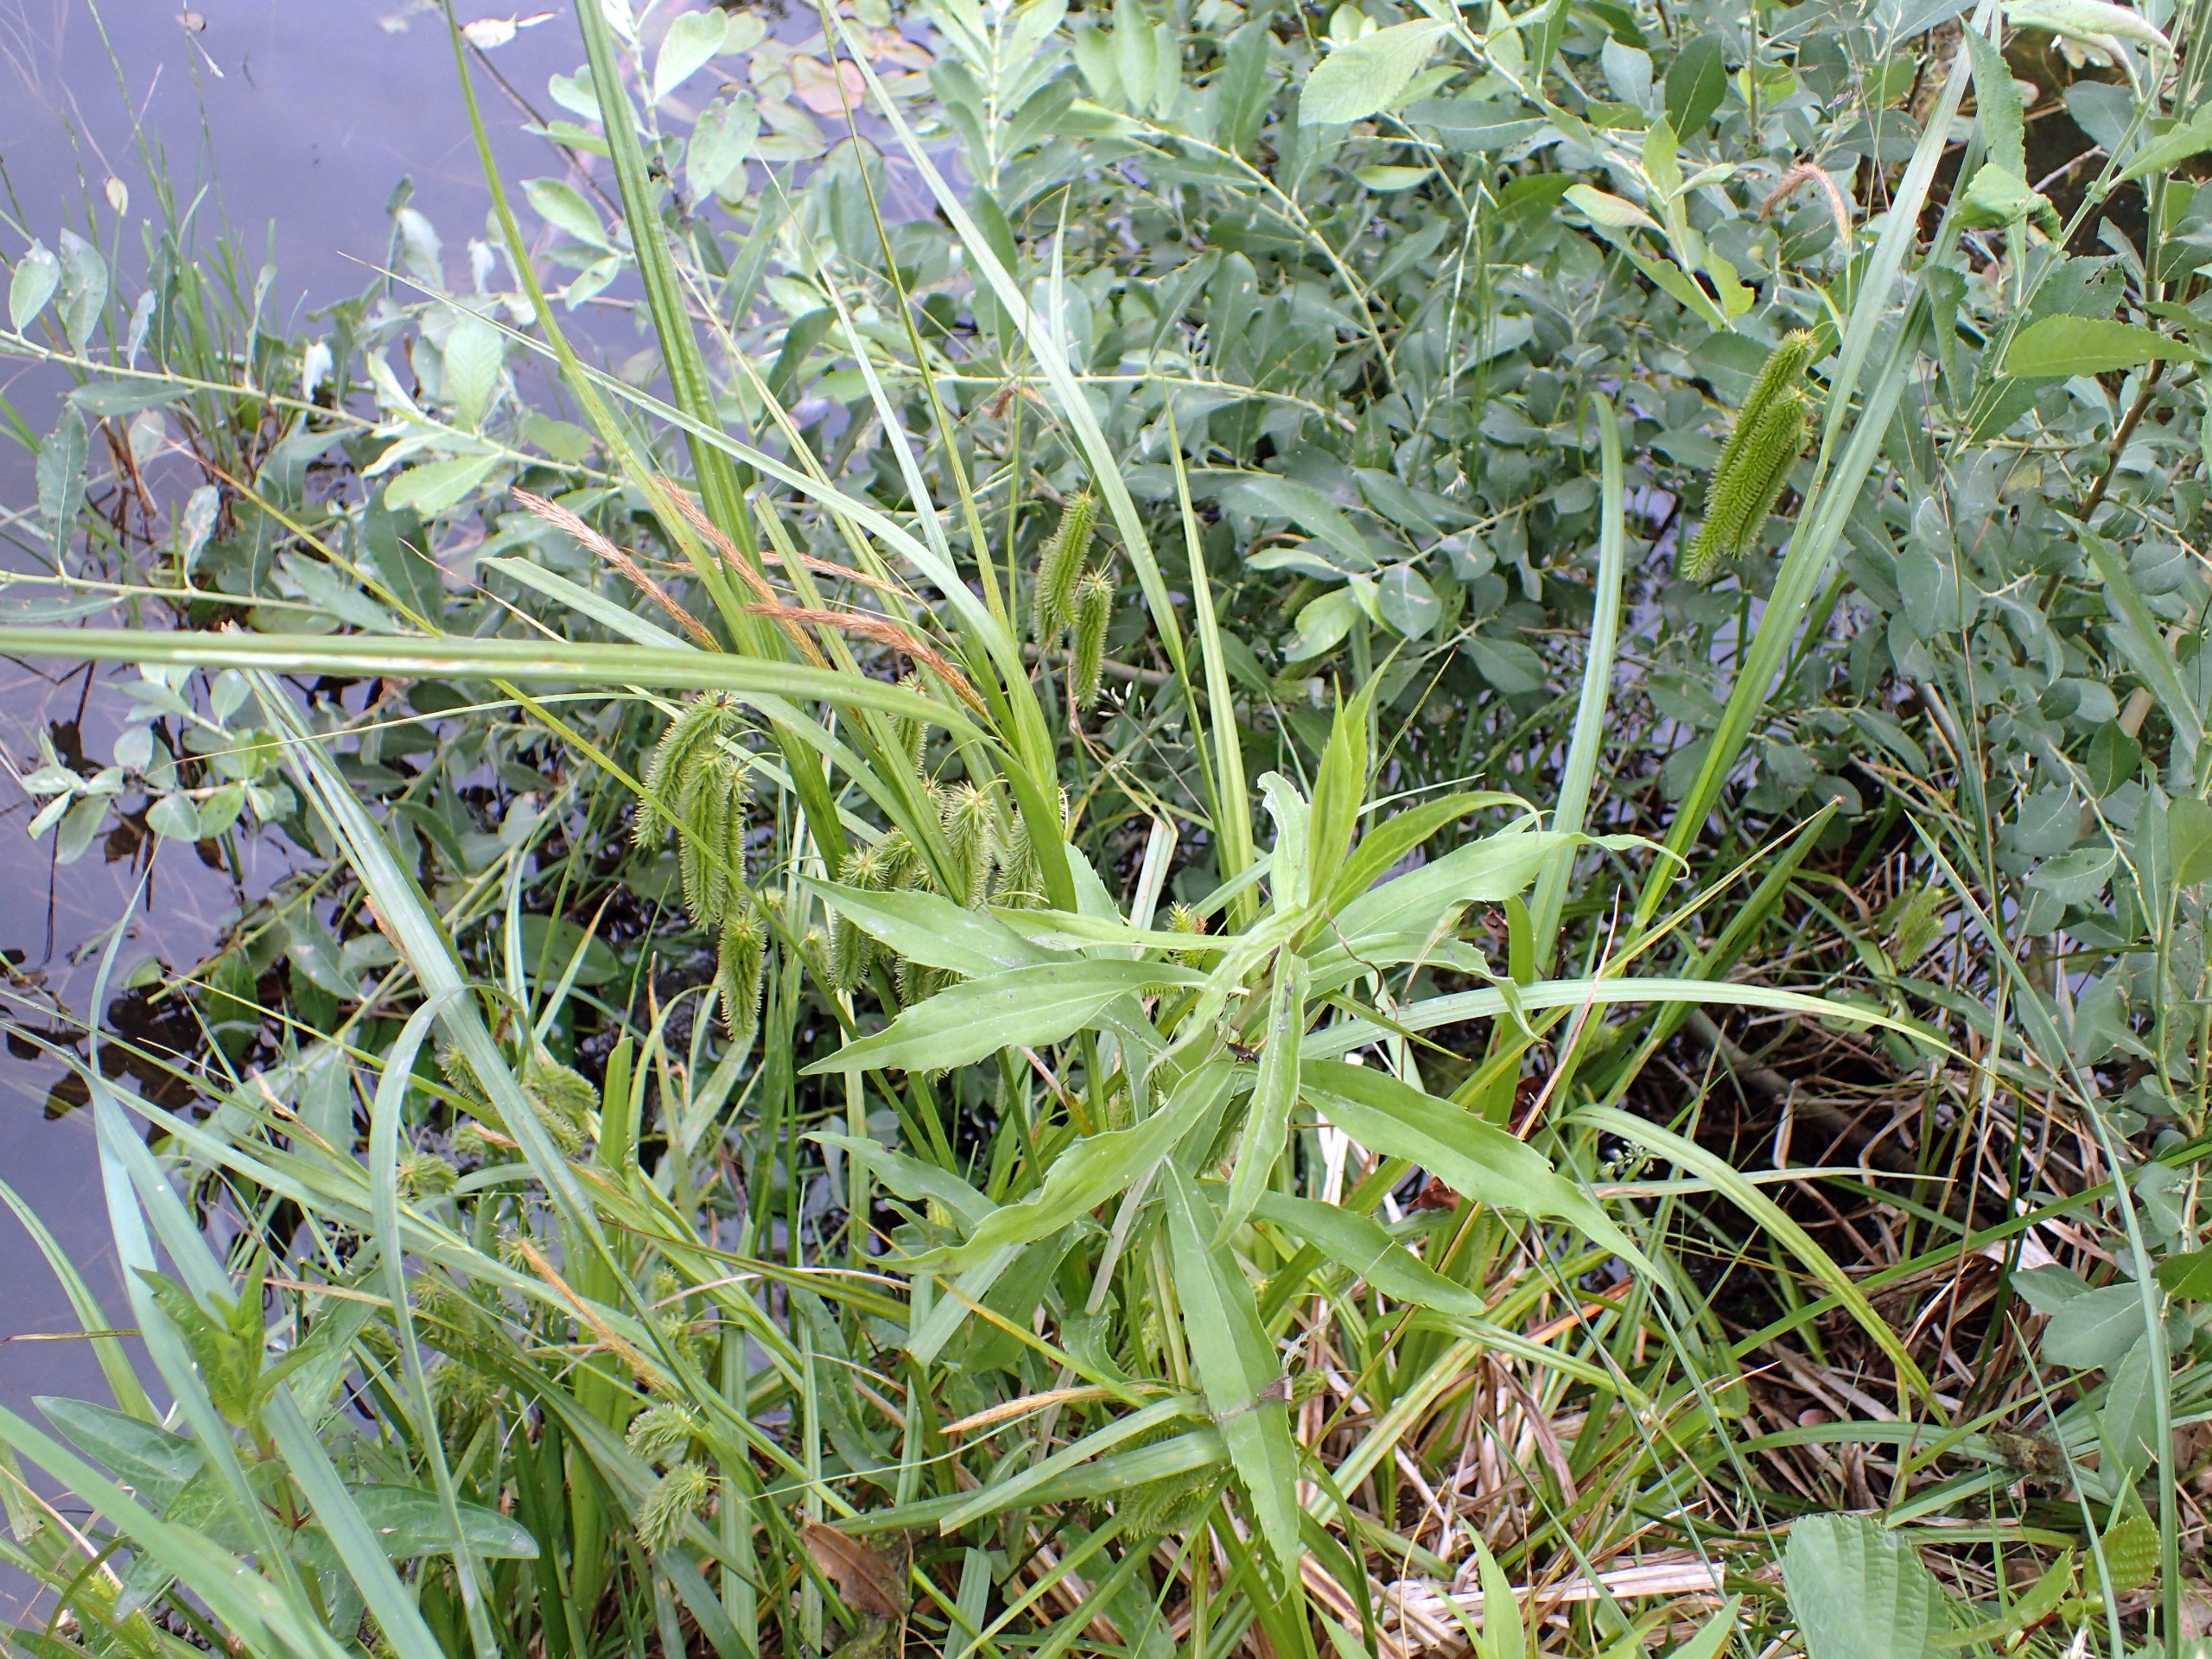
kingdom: Plantae
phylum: Tracheophyta
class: Liliopsida
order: Poales
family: Cyperaceae
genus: Carex
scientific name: Carex pseudocyperus
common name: Knippe-star
